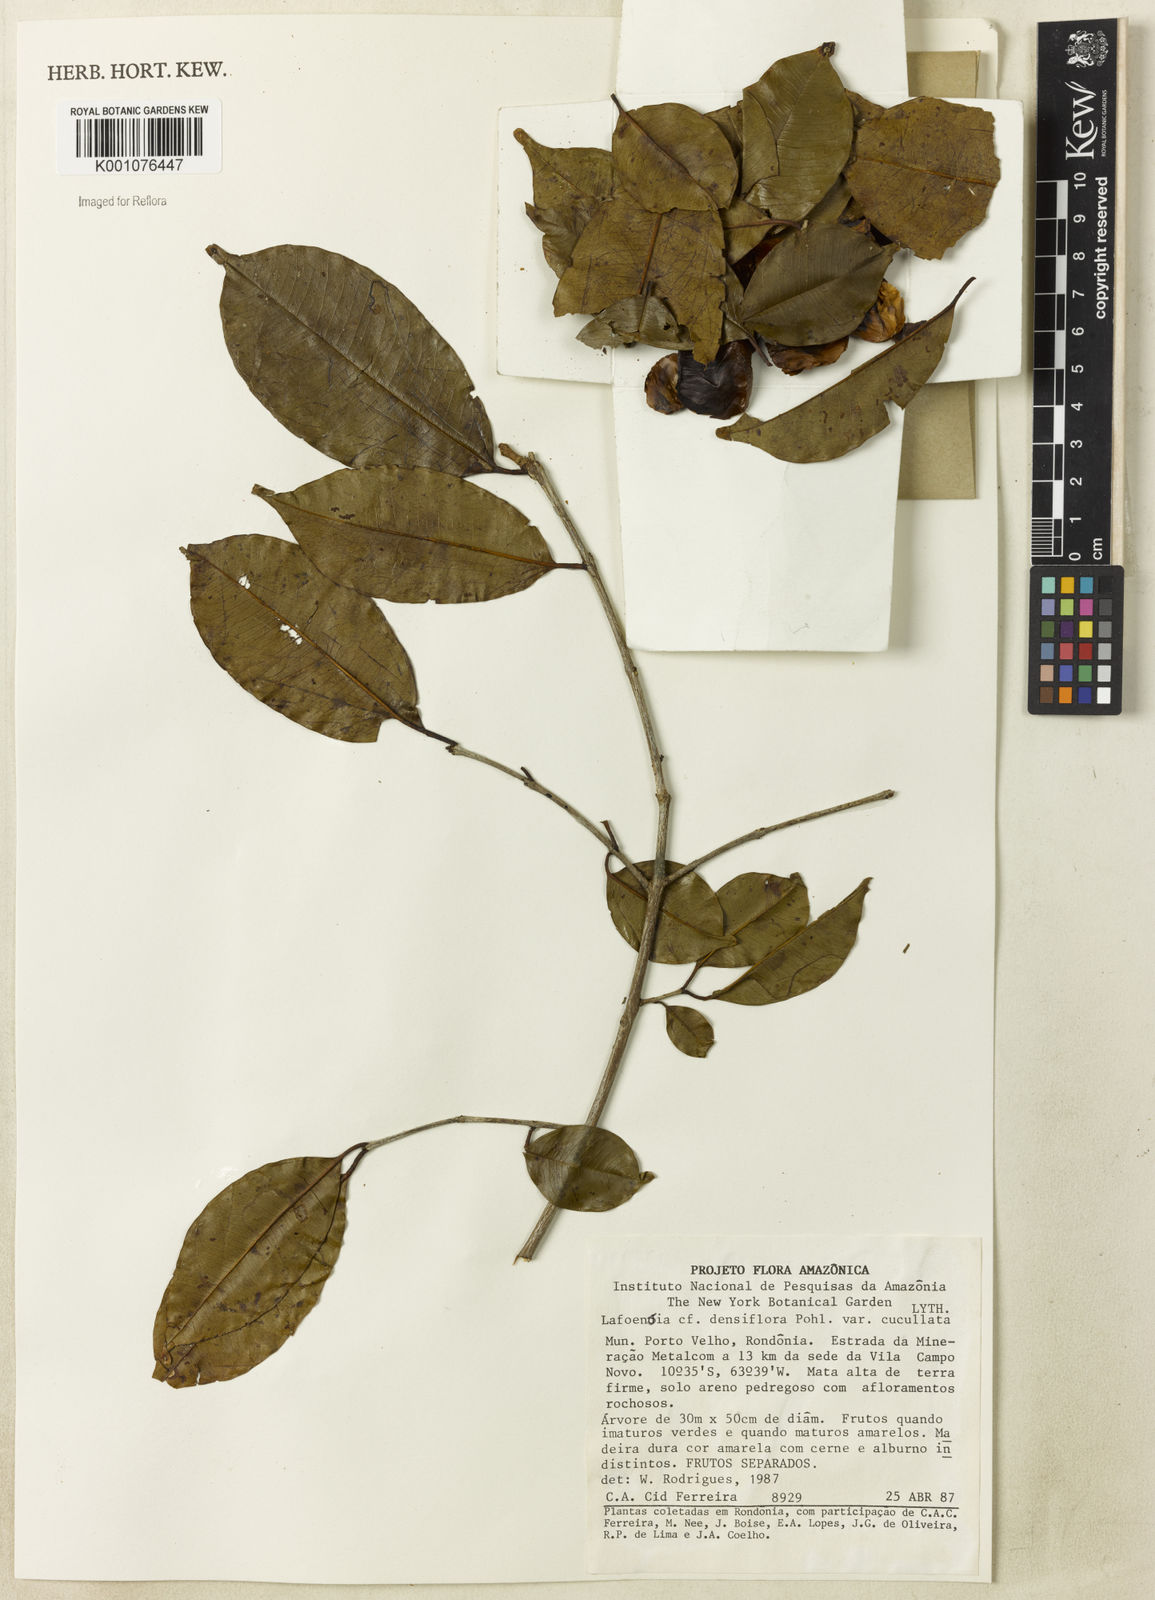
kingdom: Plantae
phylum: Tracheophyta
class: Magnoliopsida
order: Myrtales
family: Lythraceae
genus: Lafoensia
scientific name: Lafoensia vandelliana
